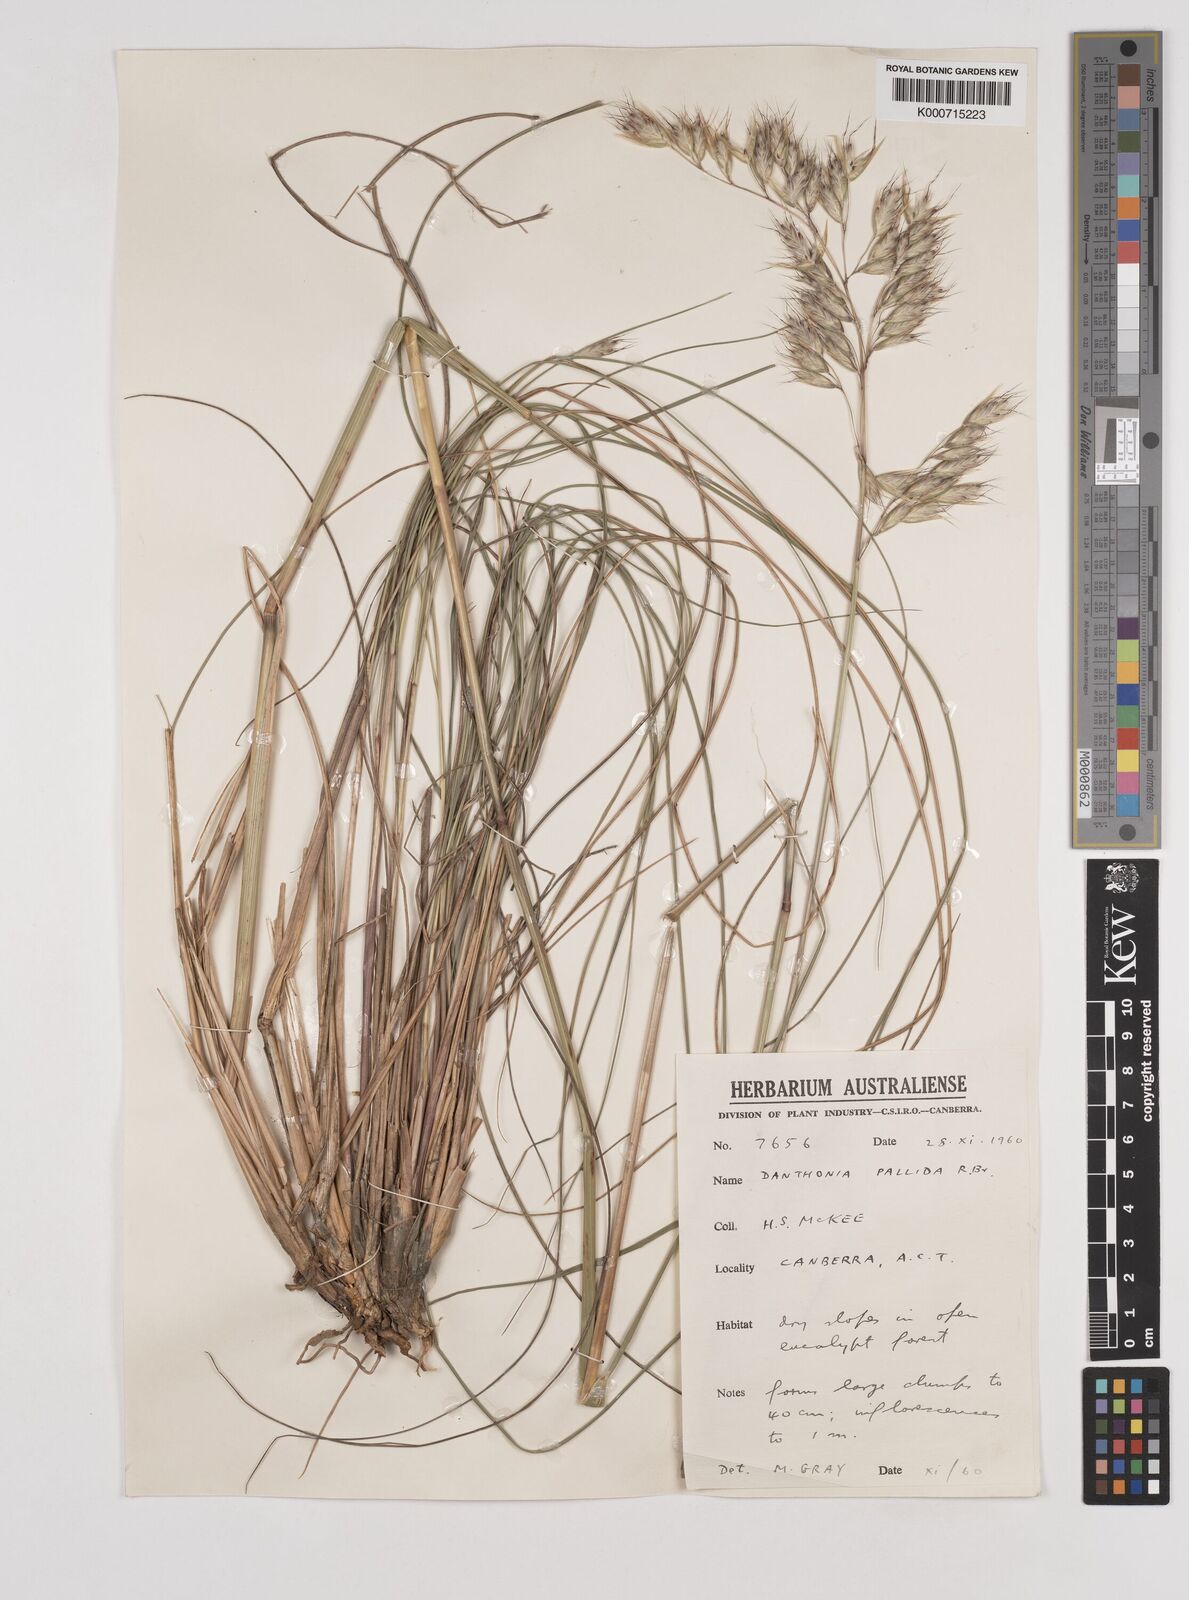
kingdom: Plantae
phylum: Tracheophyta
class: Liliopsida
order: Poales
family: Poaceae
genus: Rytidosperma
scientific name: Rytidosperma
